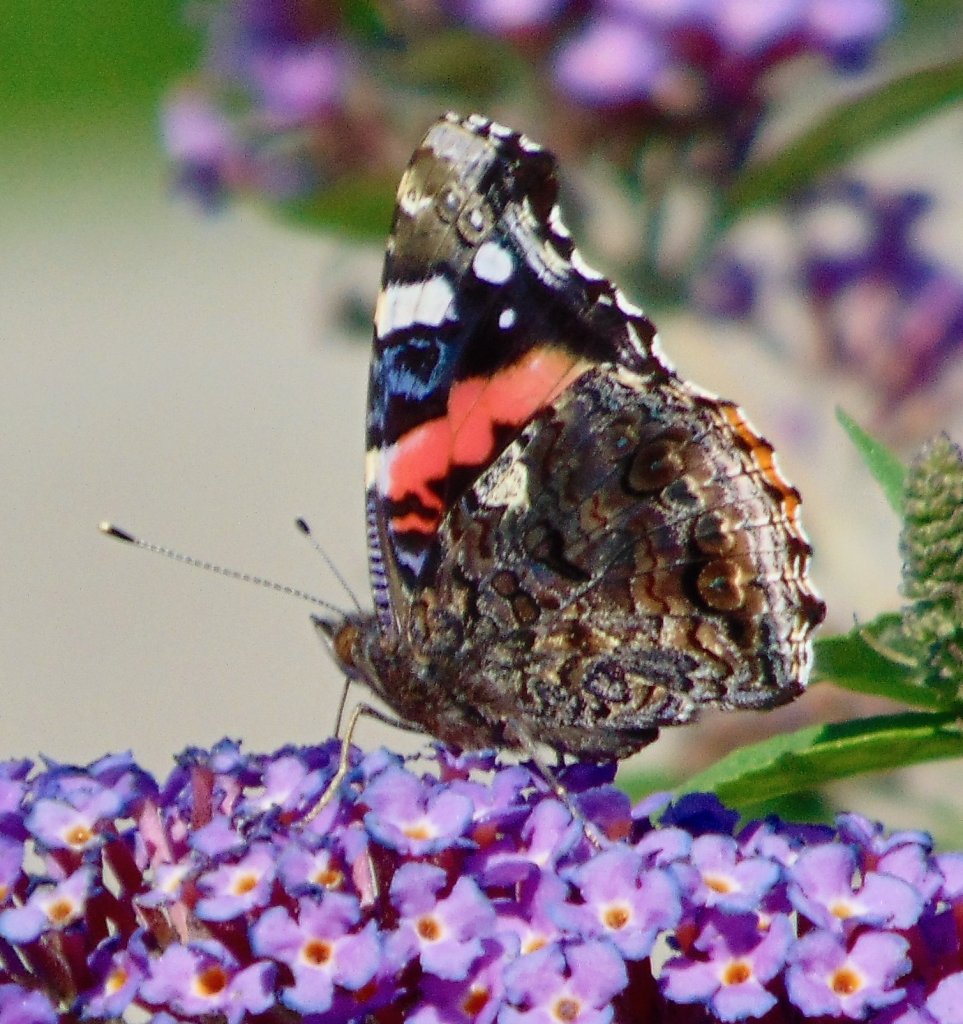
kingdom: Animalia
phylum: Arthropoda
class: Insecta
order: Lepidoptera
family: Nymphalidae
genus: Vanessa
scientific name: Vanessa atalanta
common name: Red Admiral
